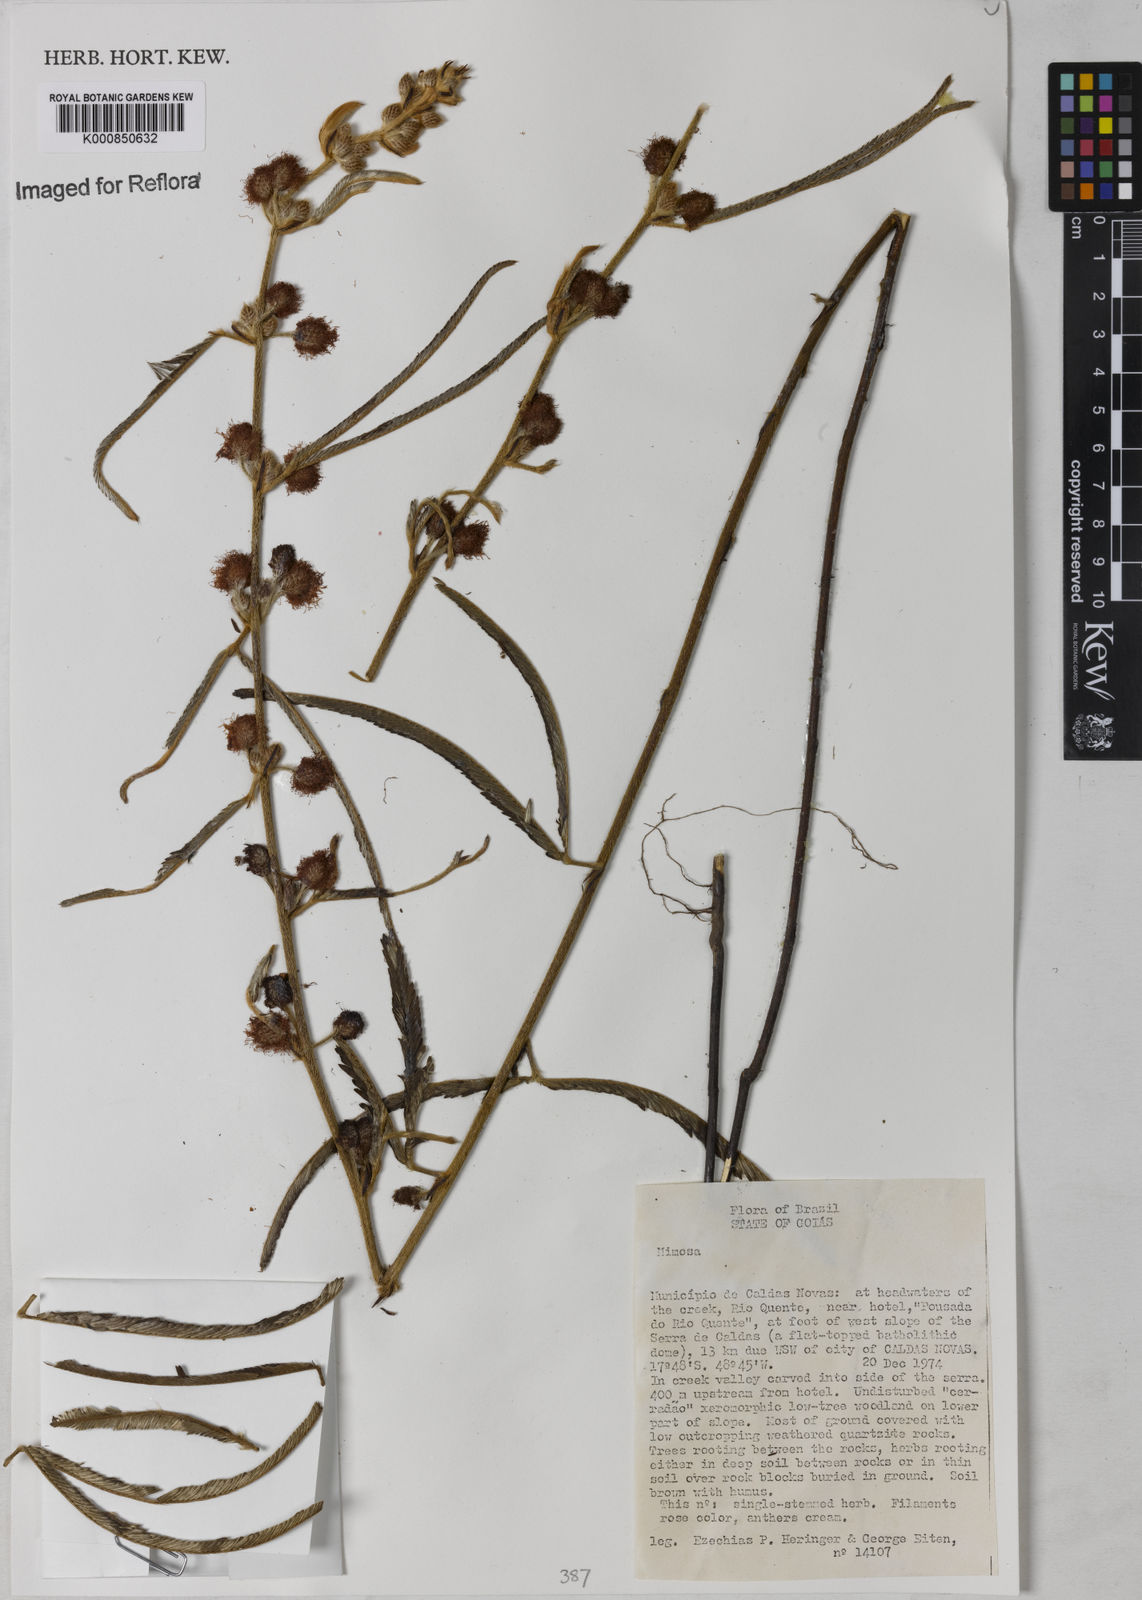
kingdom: Plantae
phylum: Tracheophyta
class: Magnoliopsida
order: Fabales
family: Fabaceae
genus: Mimosa
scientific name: Mimosa
